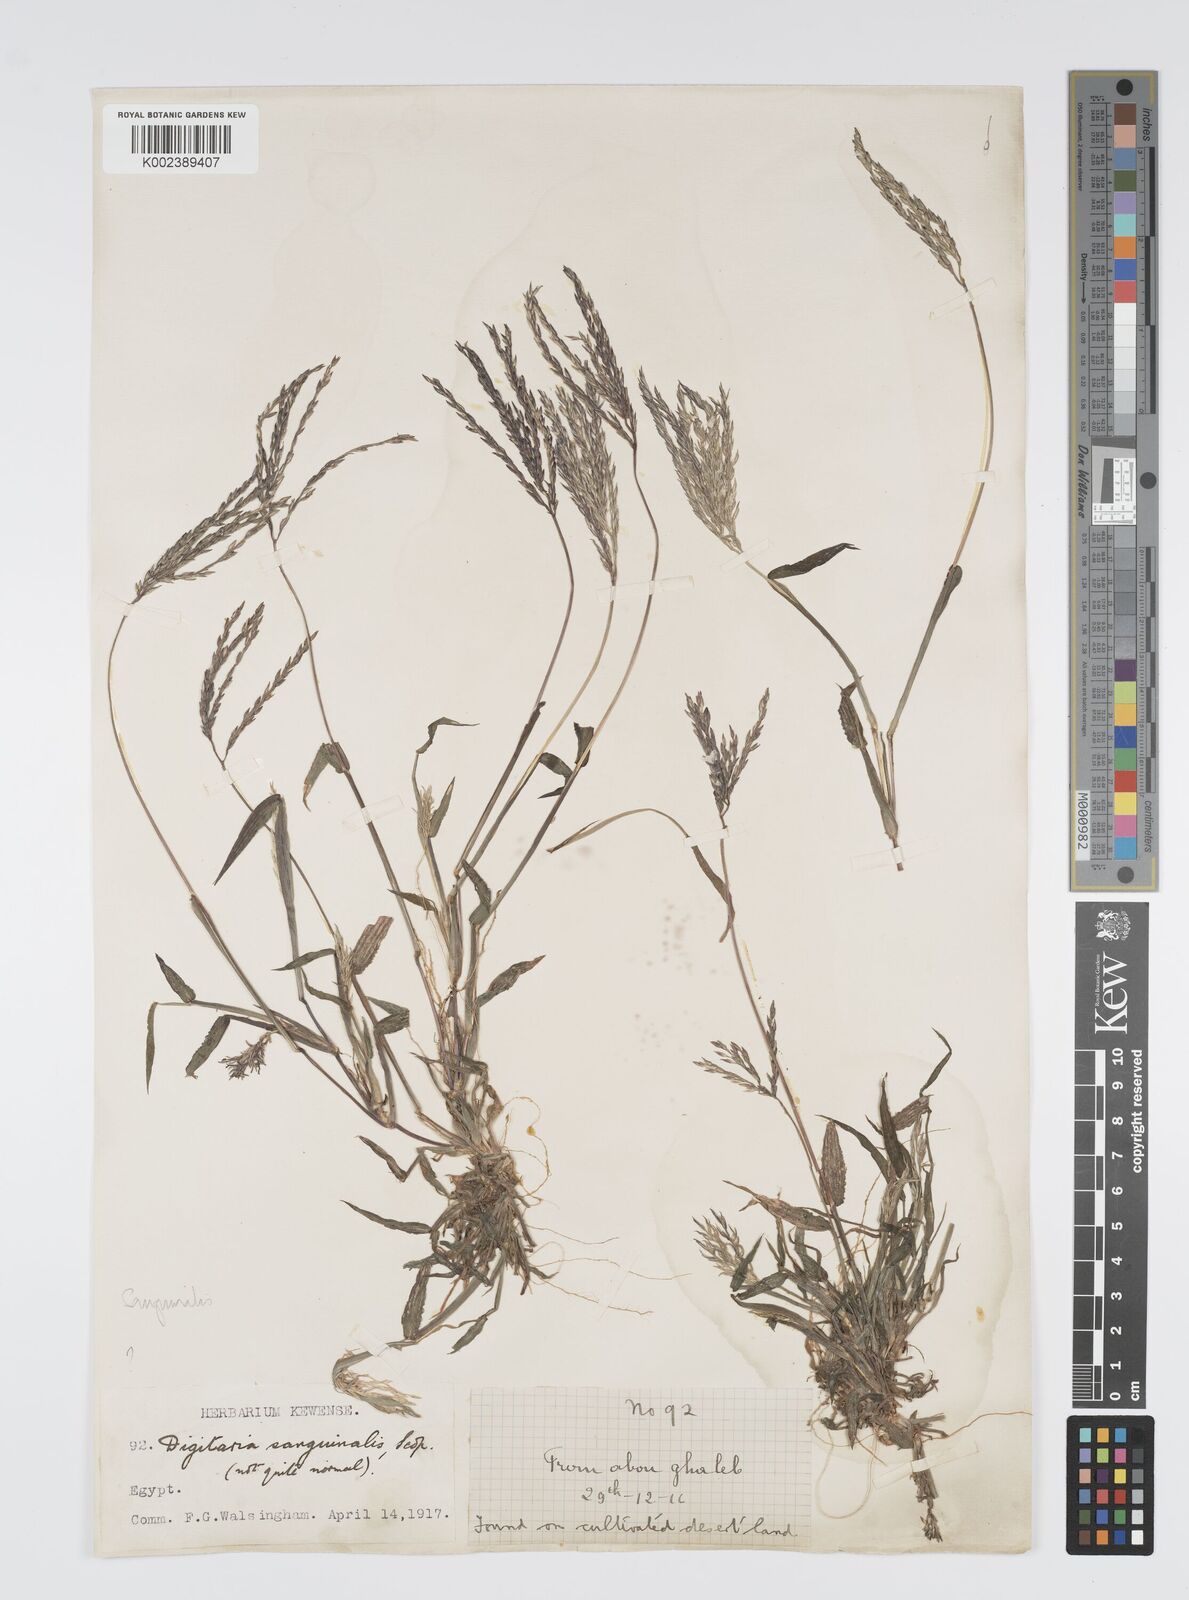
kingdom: Plantae
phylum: Tracheophyta
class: Liliopsida
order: Poales
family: Poaceae
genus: Digitaria
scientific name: Digitaria sanguinalis
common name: Hairy crabgrass
